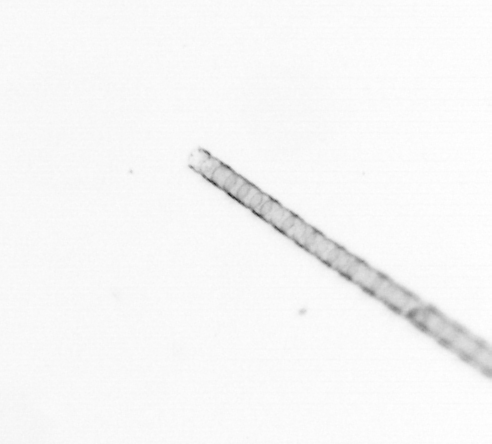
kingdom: Chromista
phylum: Ochrophyta
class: Bacillariophyceae
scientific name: Bacillariophyceae
